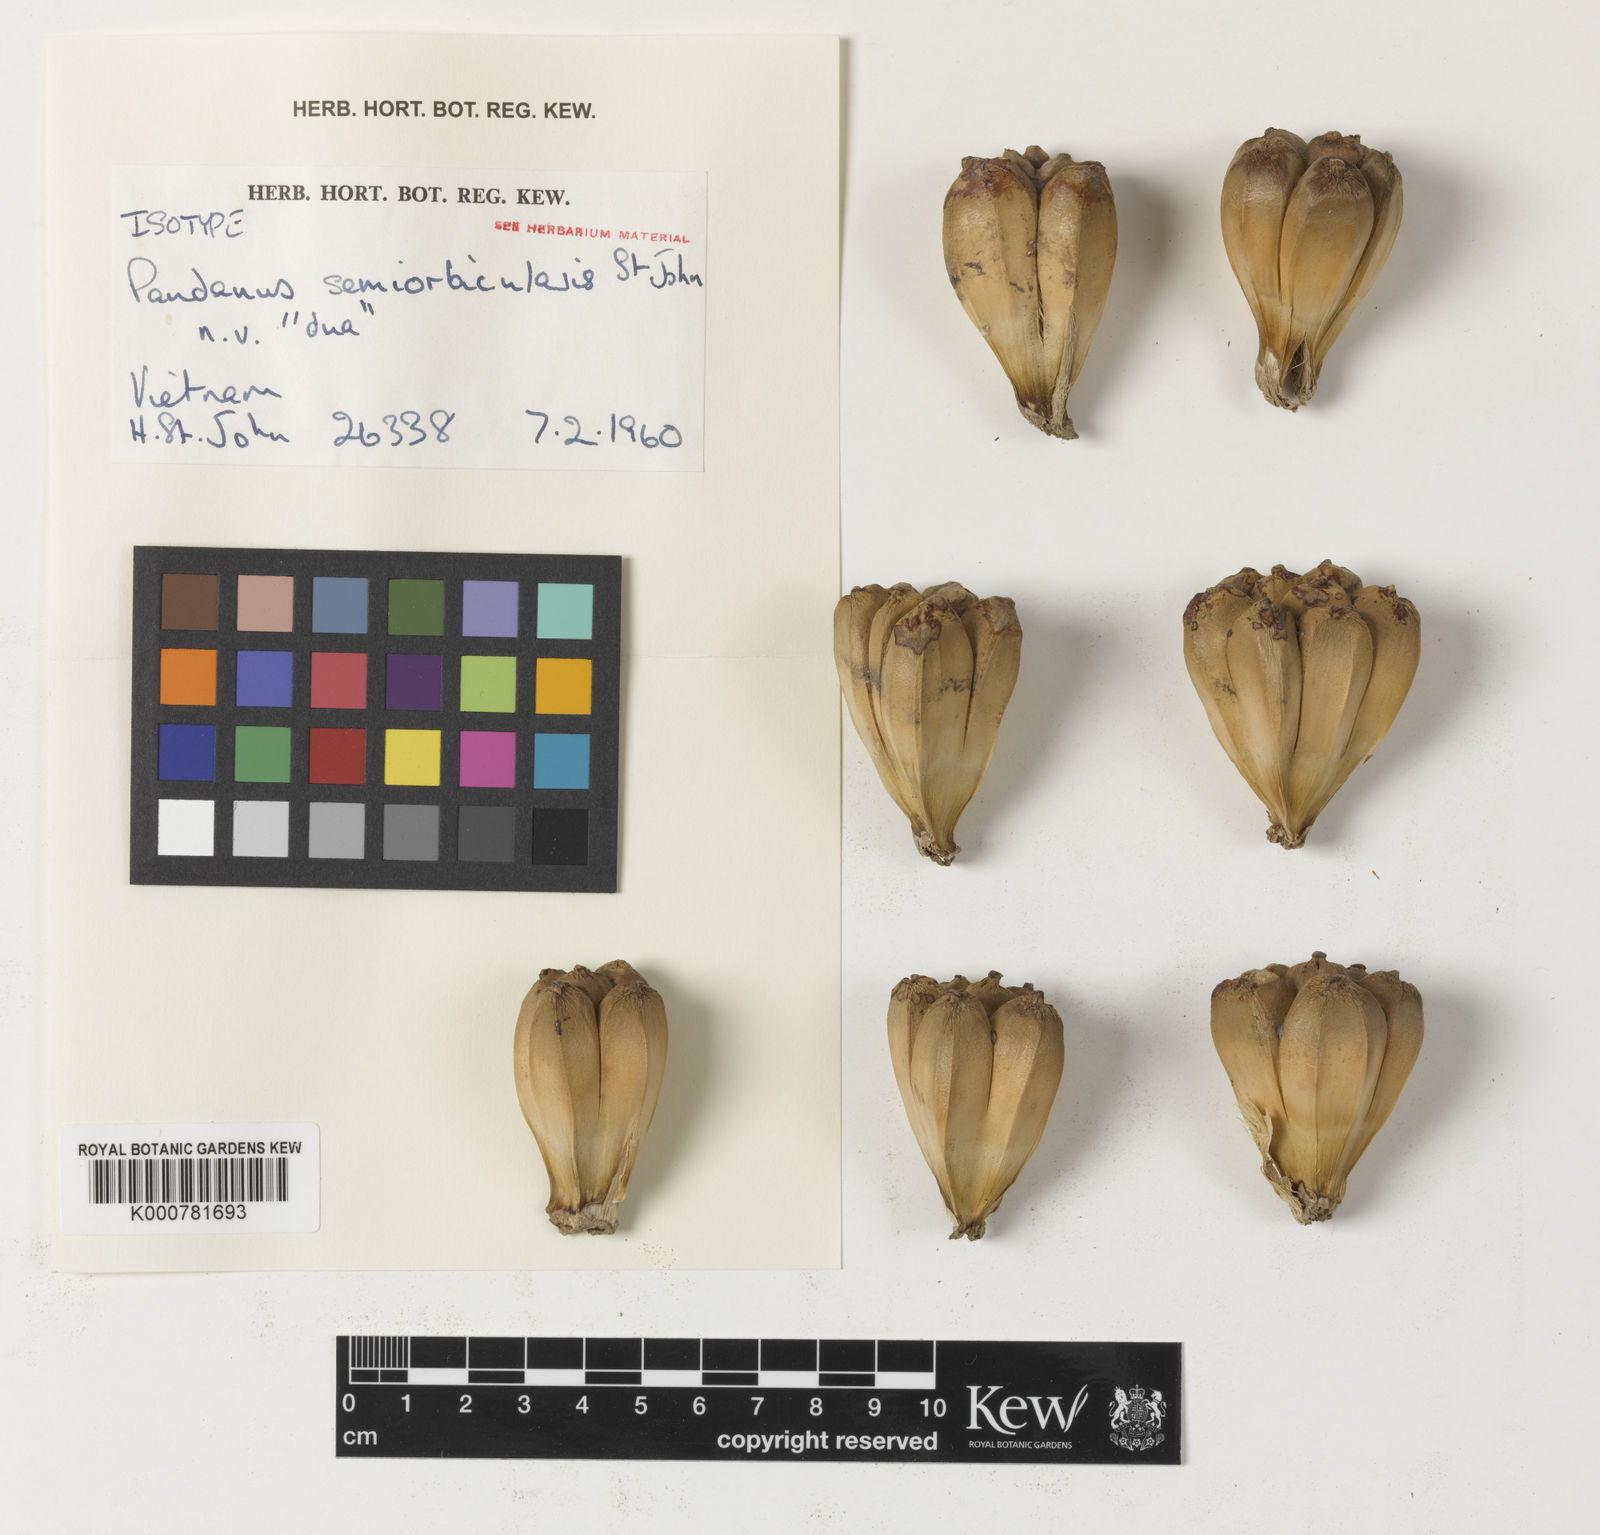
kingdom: Plantae
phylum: Tracheophyta
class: Liliopsida
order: Pandanales
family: Pandanaceae
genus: Pandanus
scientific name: Pandanus odorifer
